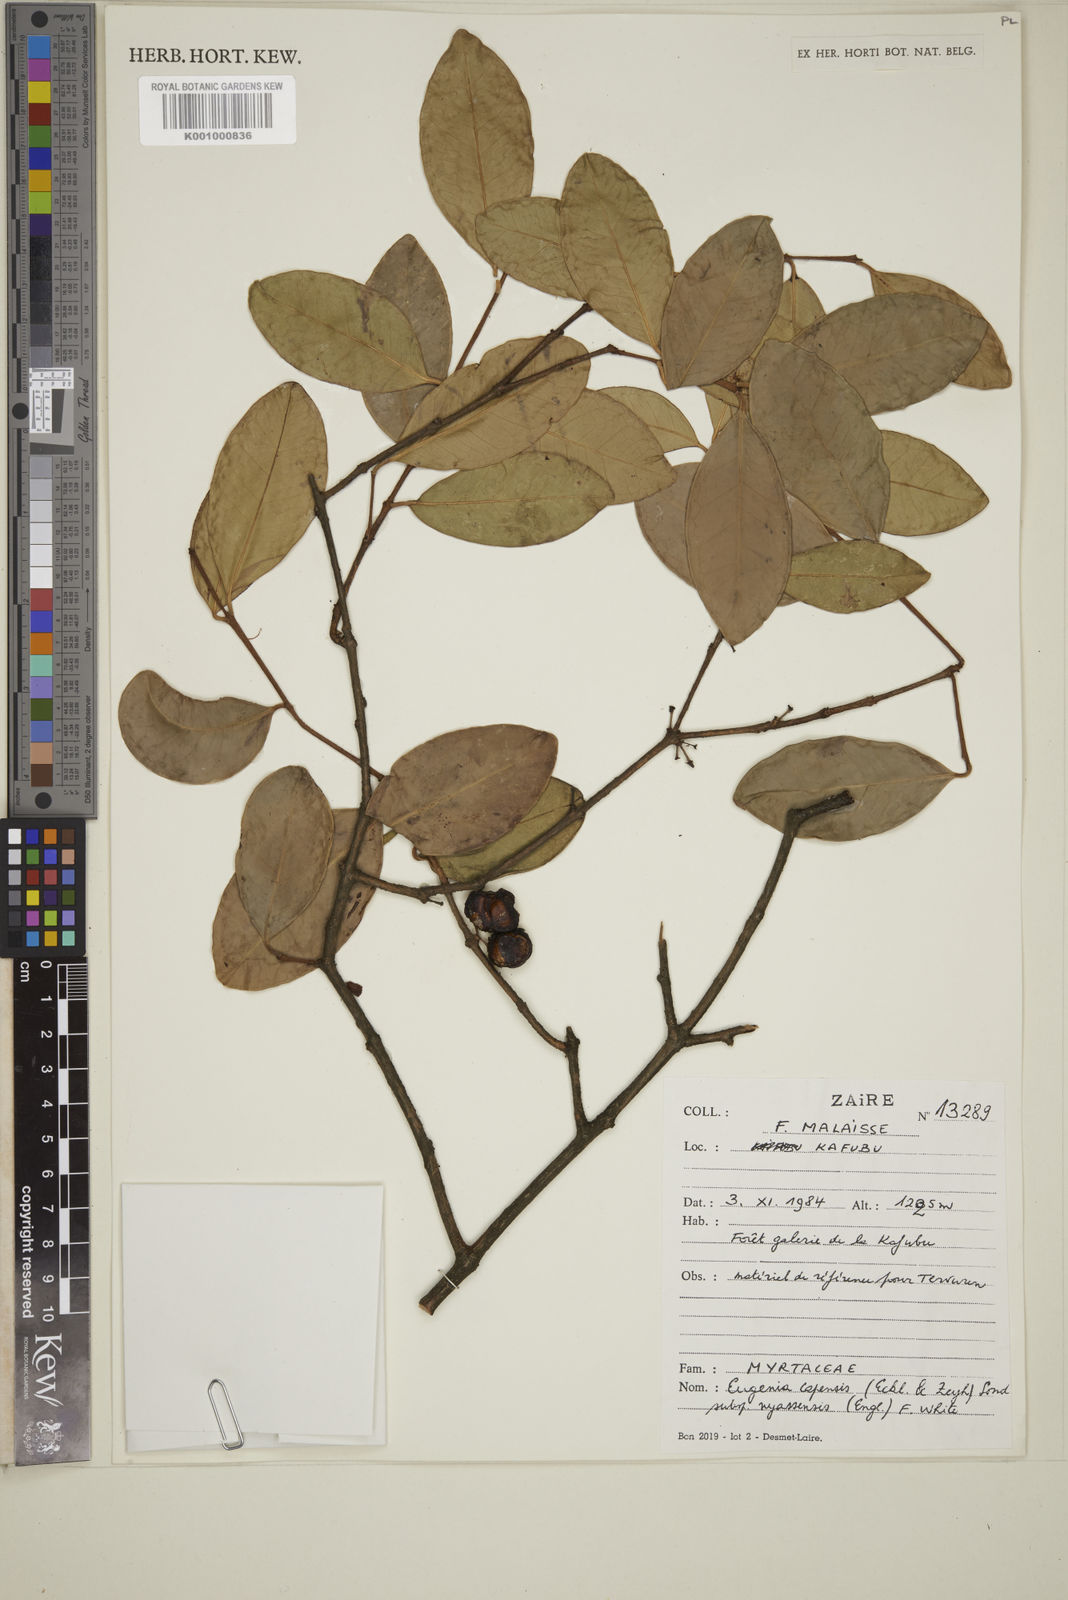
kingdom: Plantae
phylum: Tracheophyta
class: Magnoliopsida
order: Myrtales
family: Myrtaceae
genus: Eugenia
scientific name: Eugenia capensis
